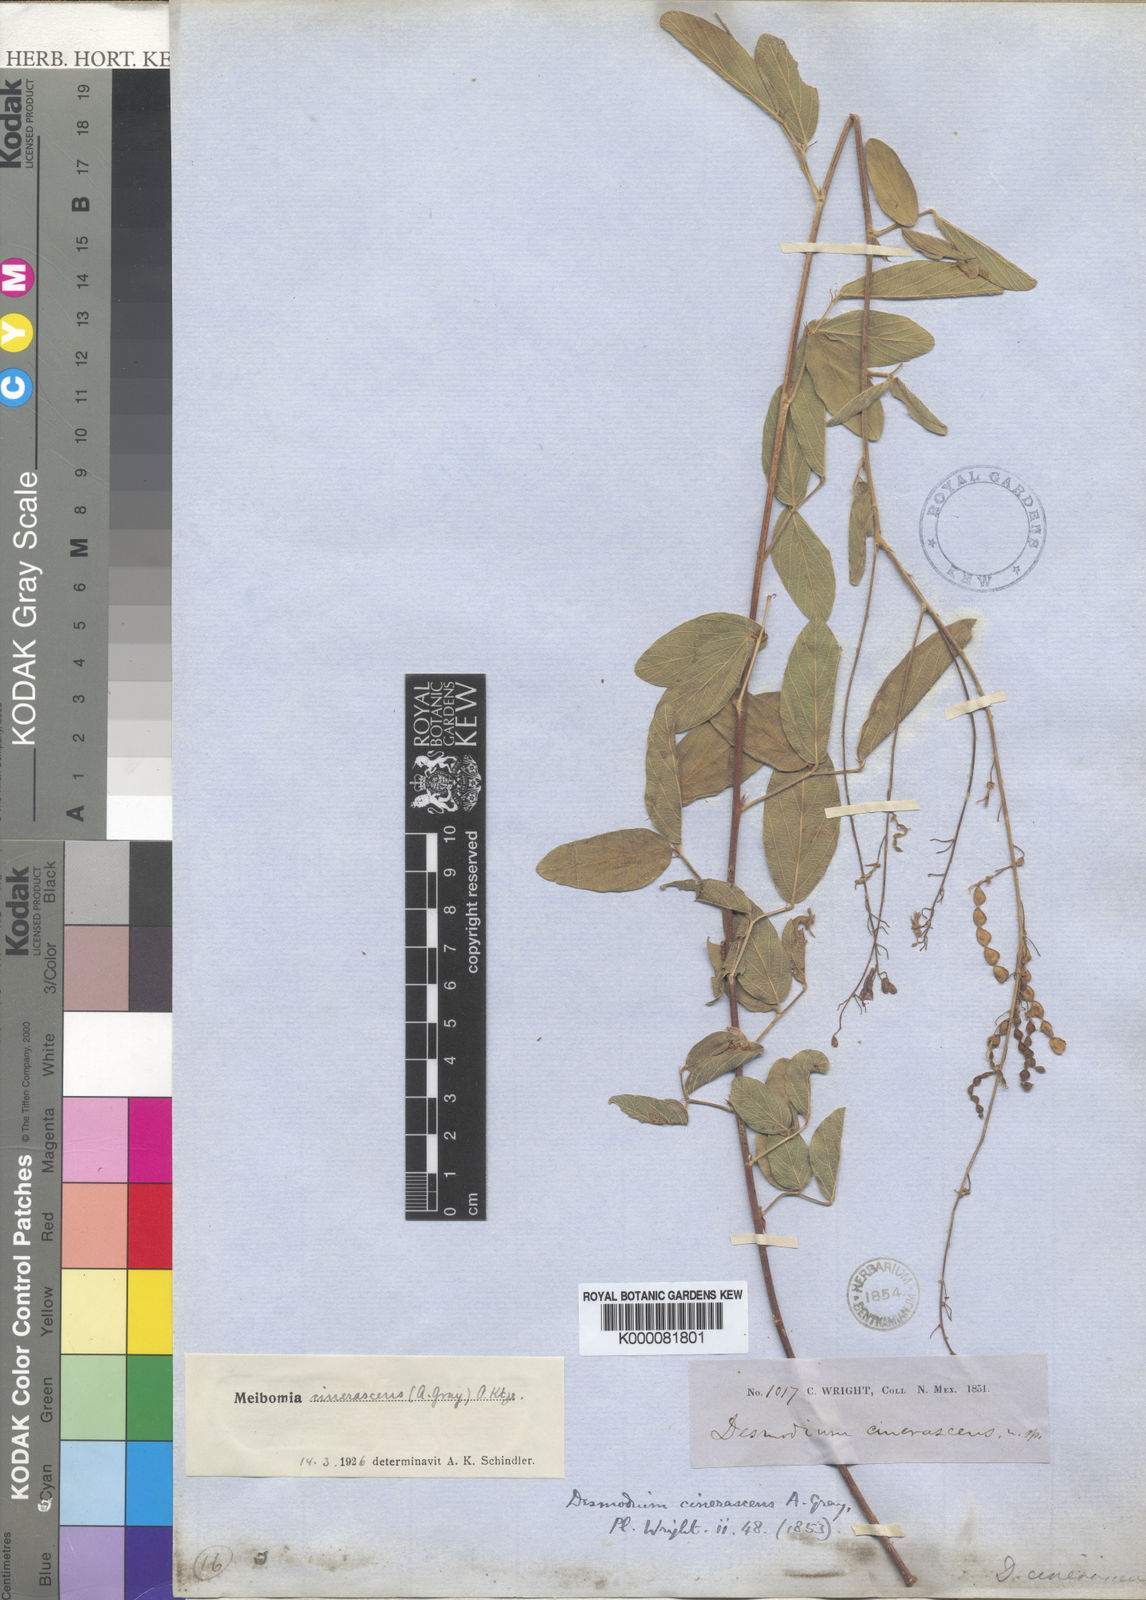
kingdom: Plantae
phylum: Tracheophyta
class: Magnoliopsida
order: Fabales
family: Fabaceae
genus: Desmodium
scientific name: Desmodium cinerascens
